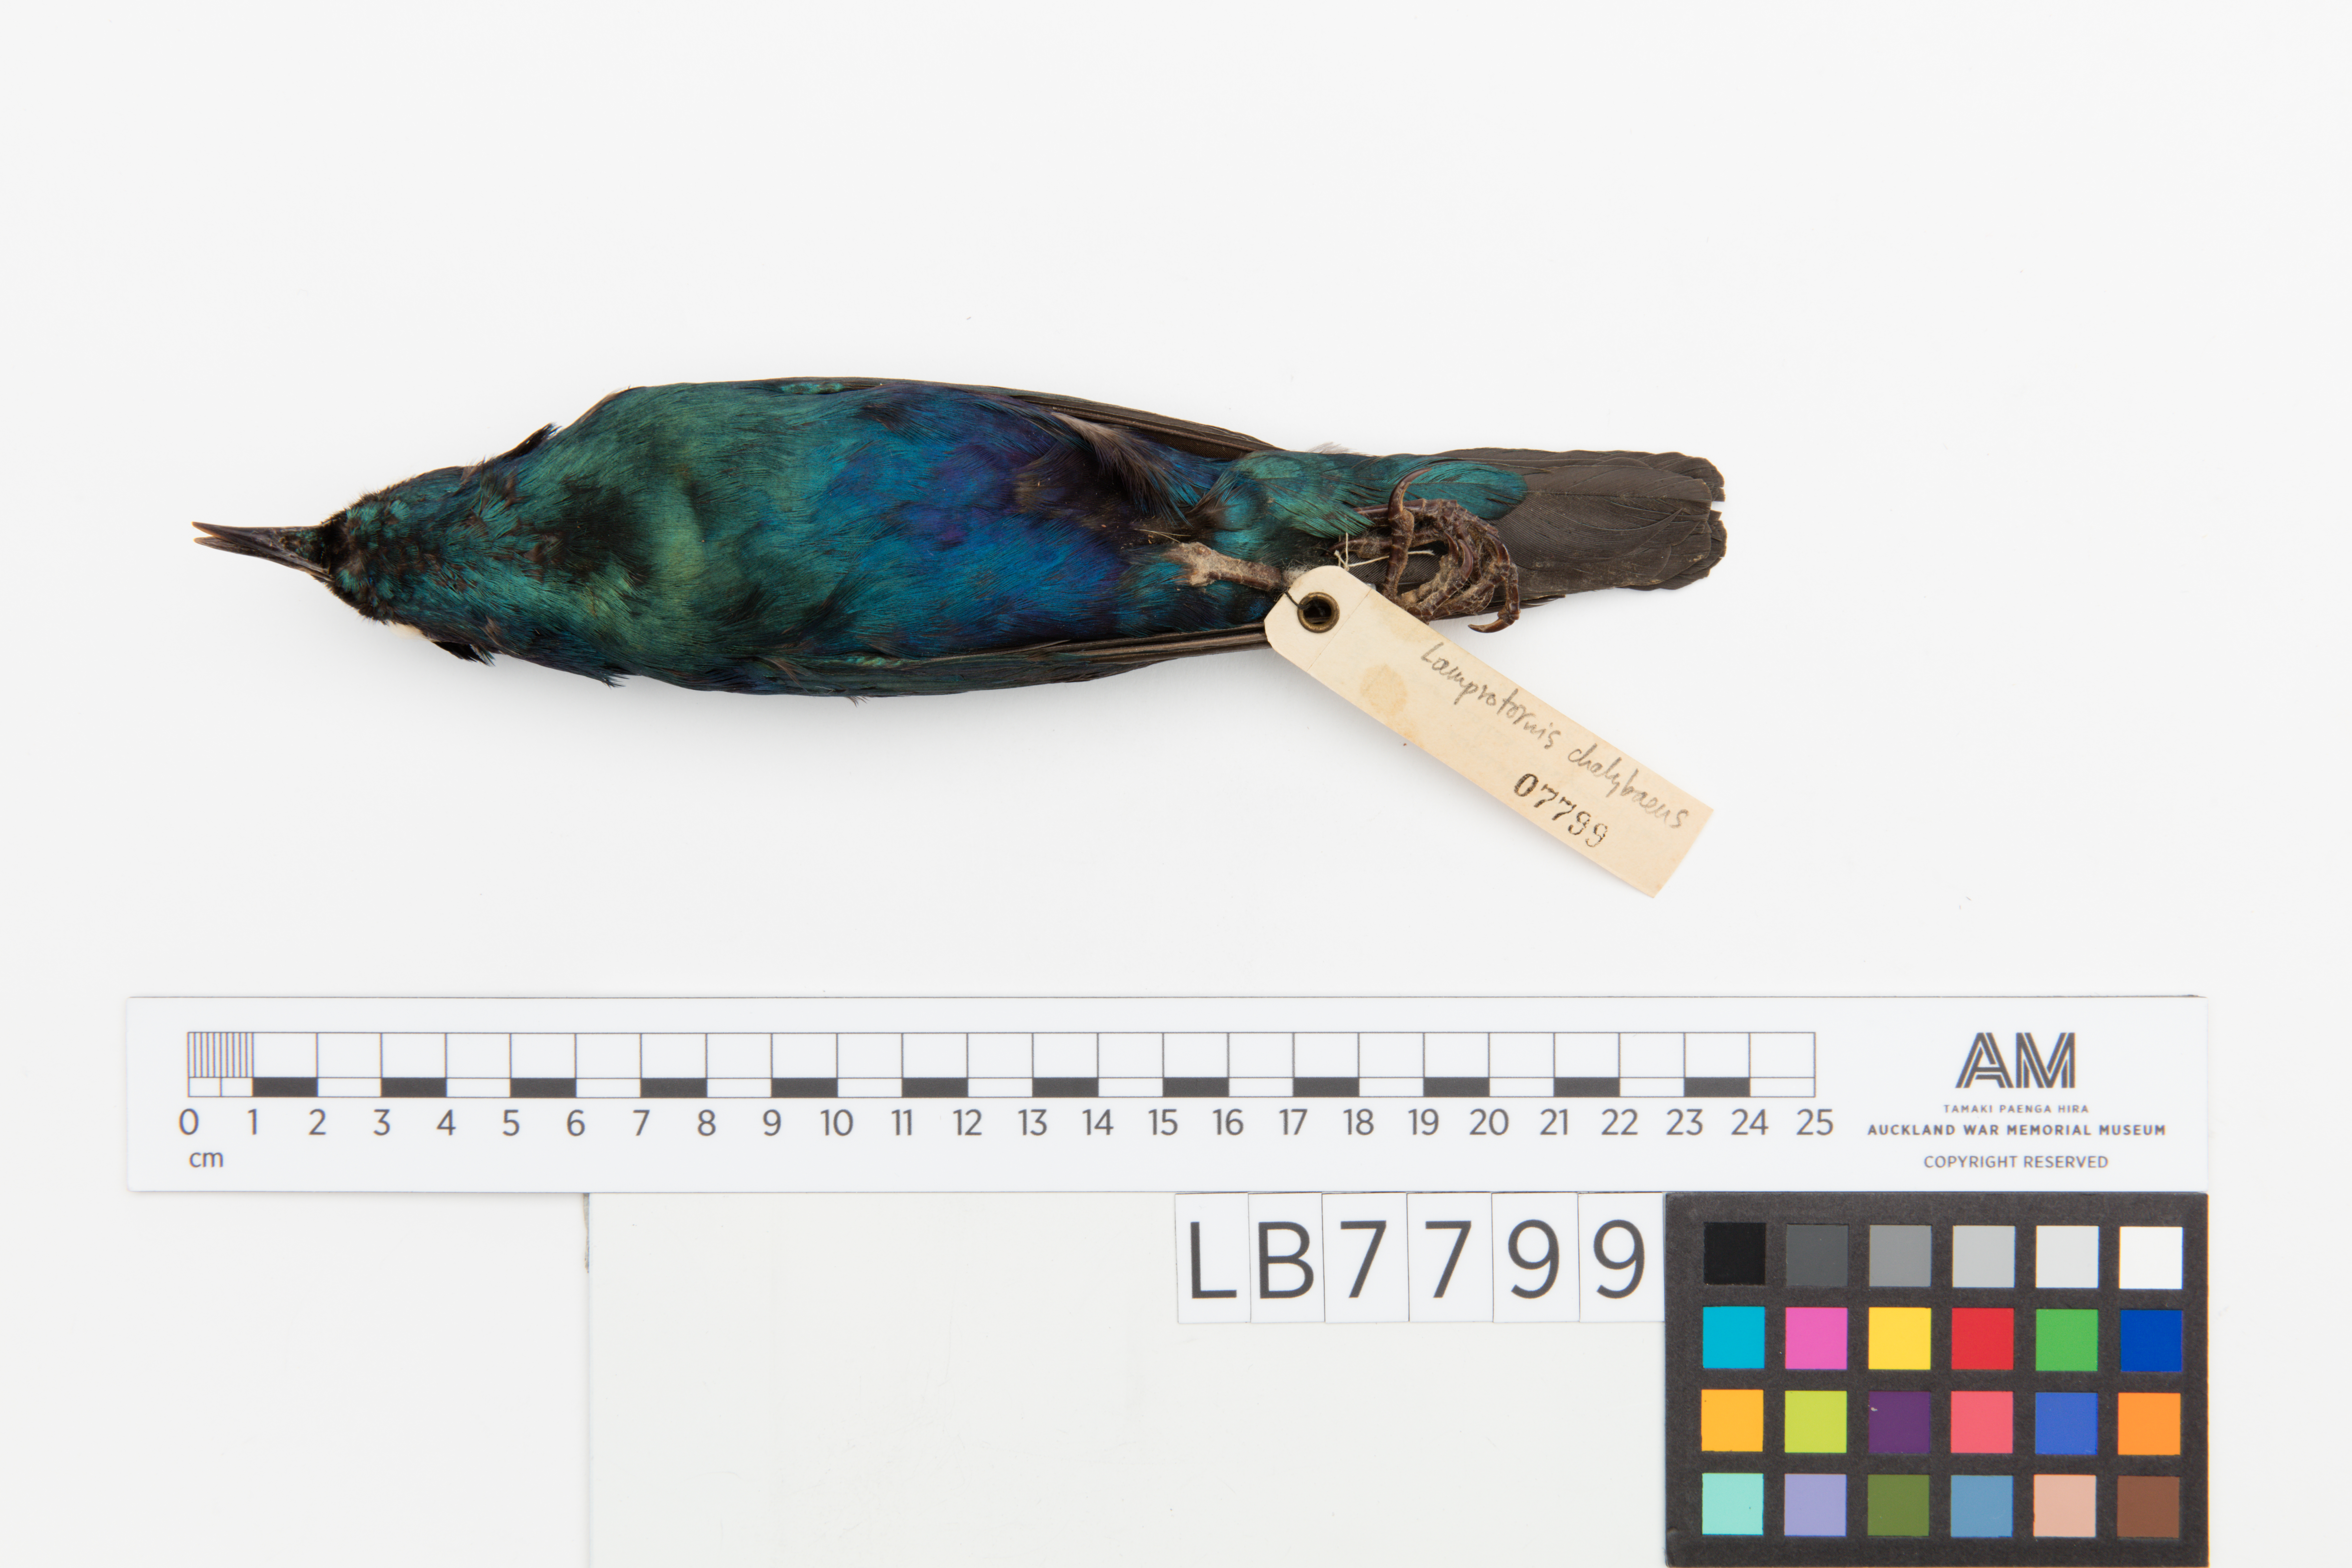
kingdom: Animalia
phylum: Chordata
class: Aves
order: Passeriformes
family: Sturnidae
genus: Lamprotornis
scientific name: Lamprotornis chalybaeus
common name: Greater blue-eared starling
